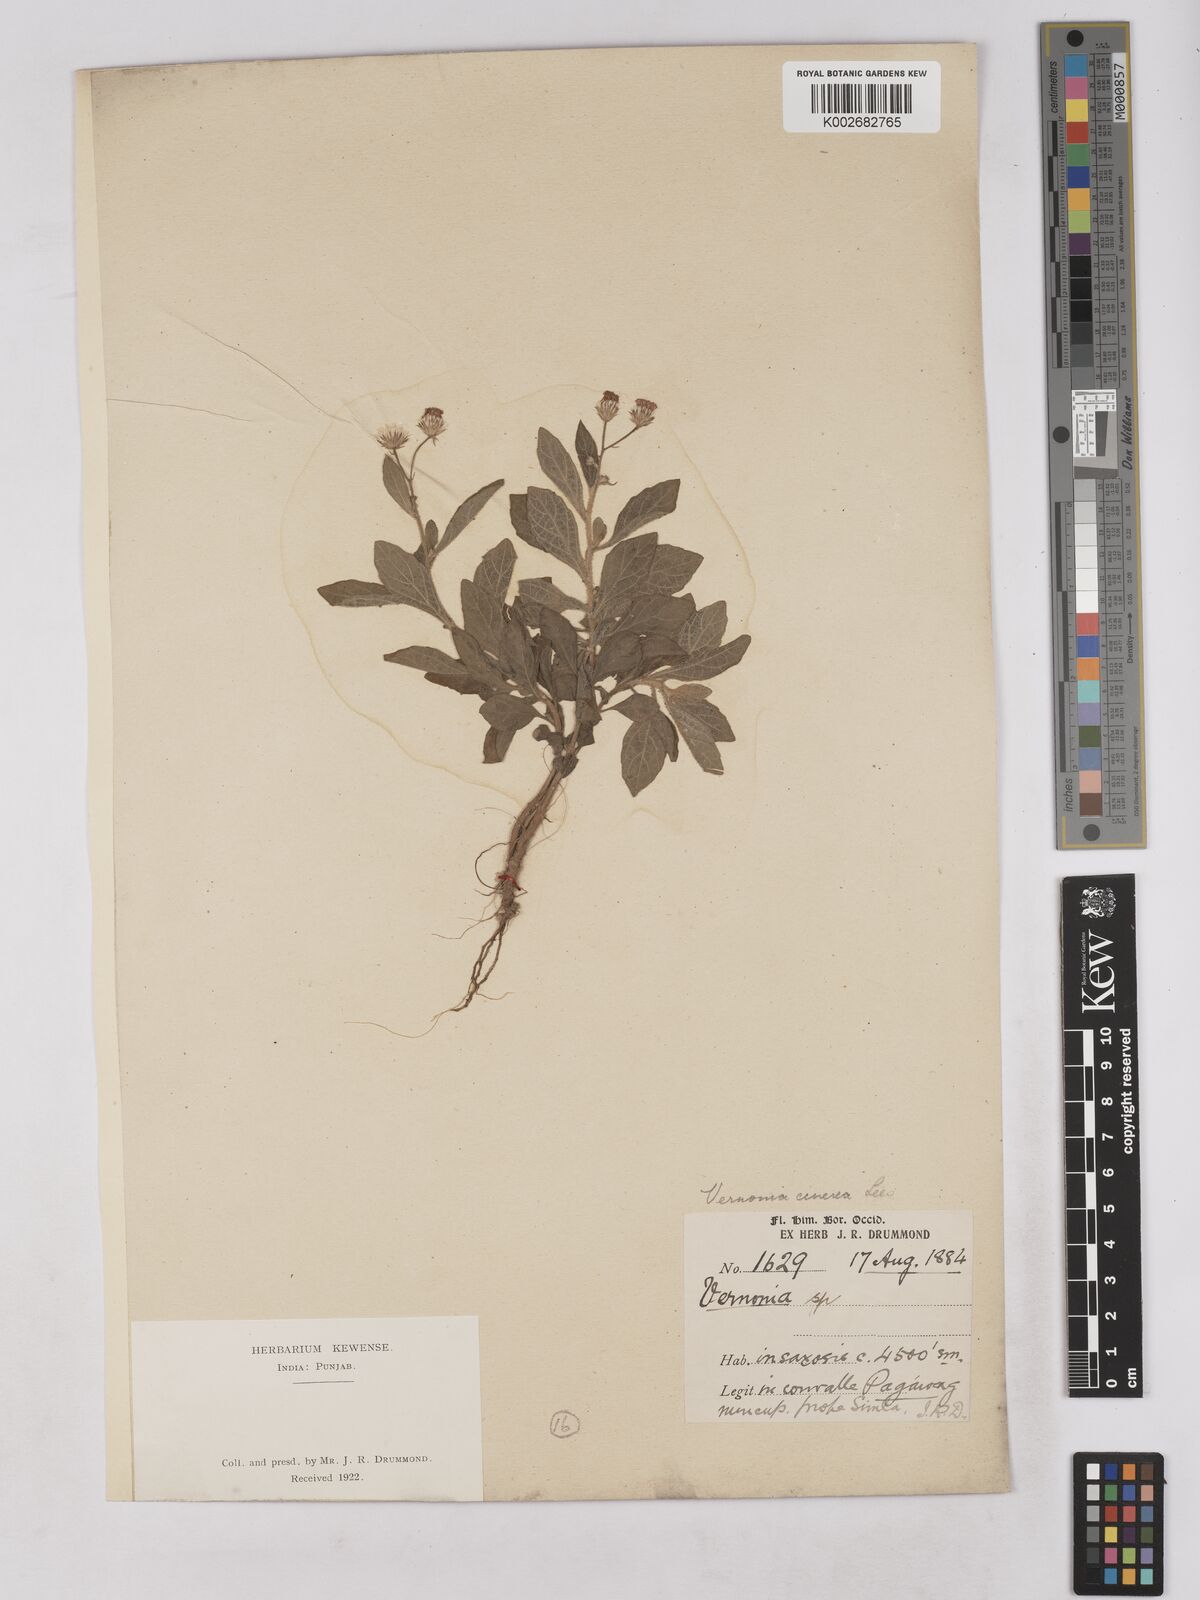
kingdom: Plantae
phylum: Tracheophyta
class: Magnoliopsida
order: Asterales
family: Asteraceae
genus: Cyanthillium
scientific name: Cyanthillium cinereum
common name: Little ironweed
